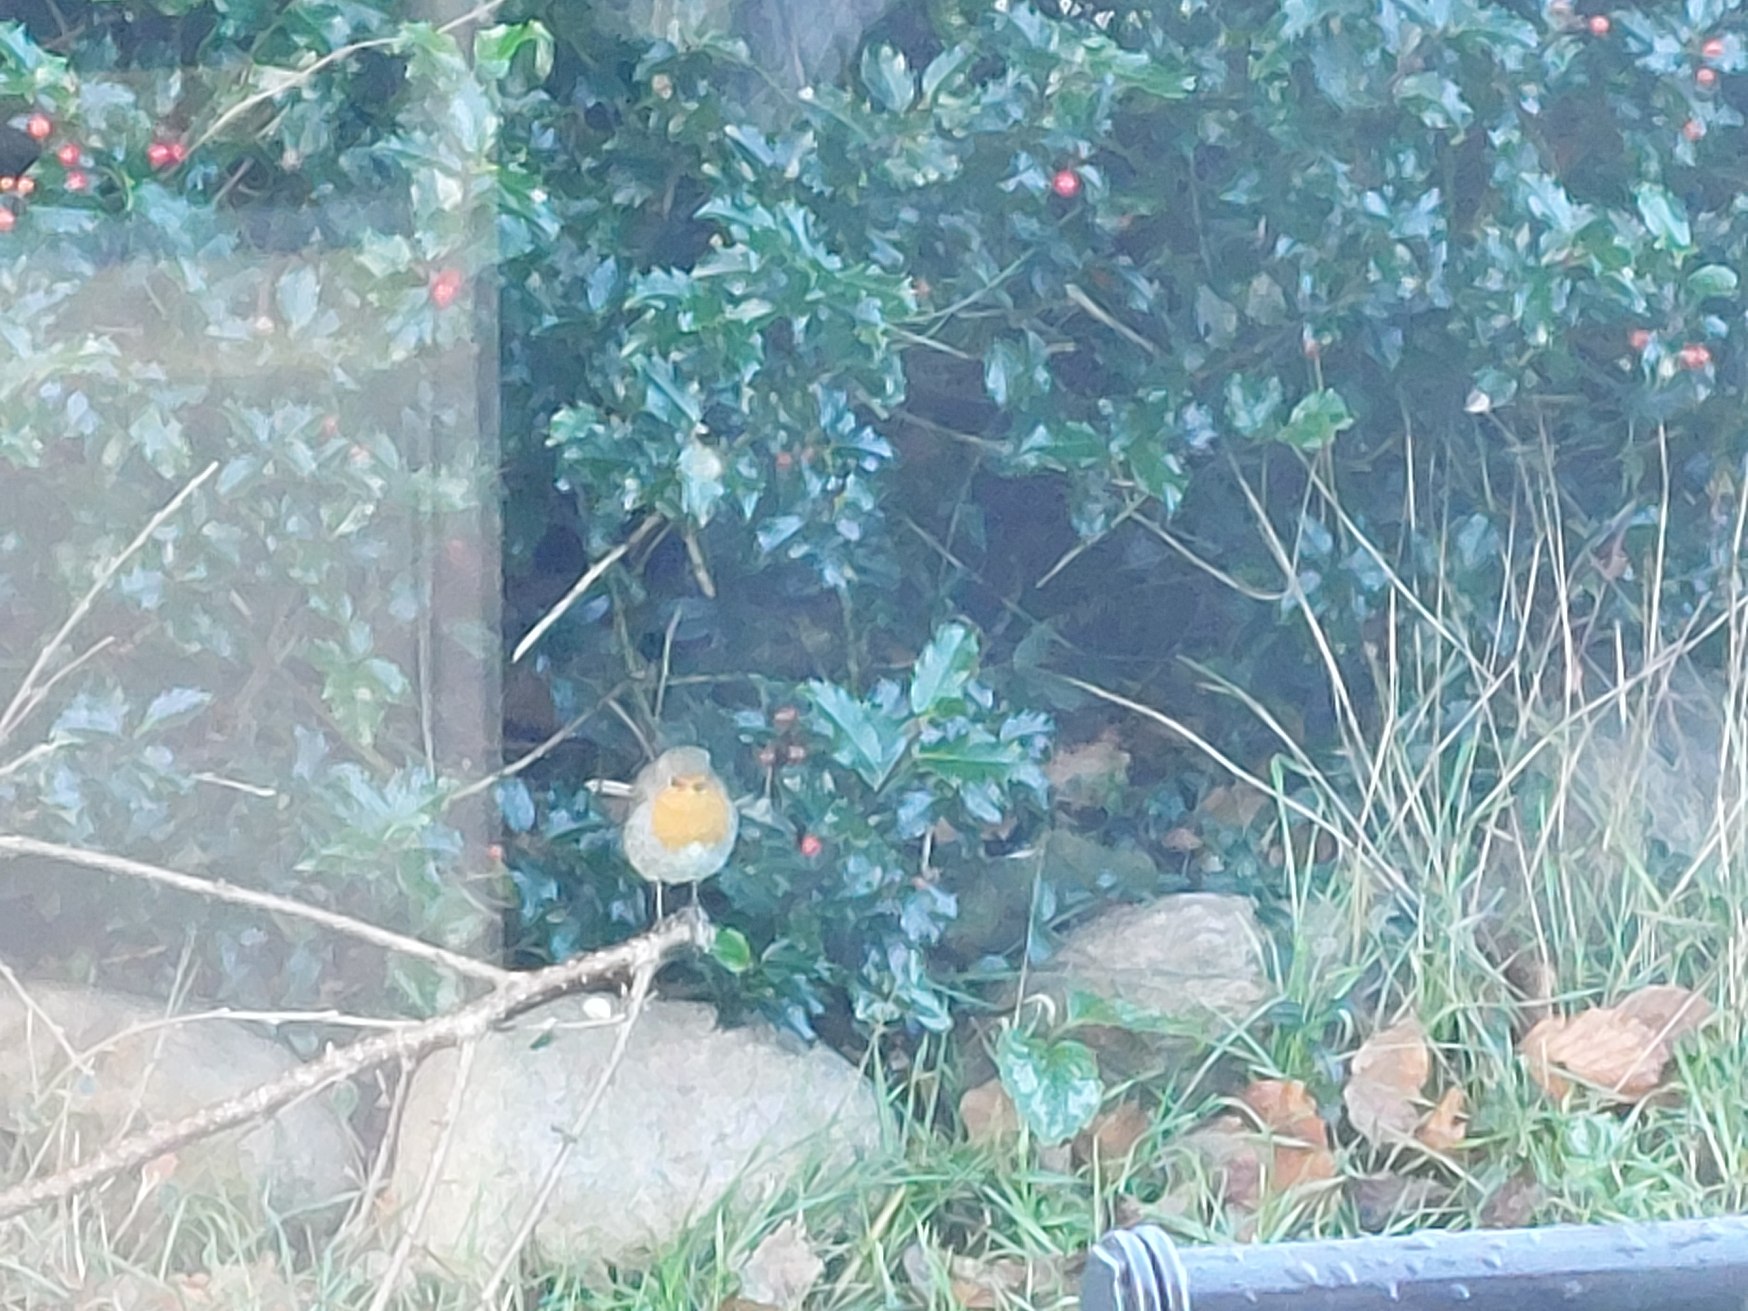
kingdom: Animalia
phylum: Chordata
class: Aves
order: Passeriformes
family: Muscicapidae
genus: Erithacus
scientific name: Erithacus rubecula
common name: Rødhals/rødkælk
